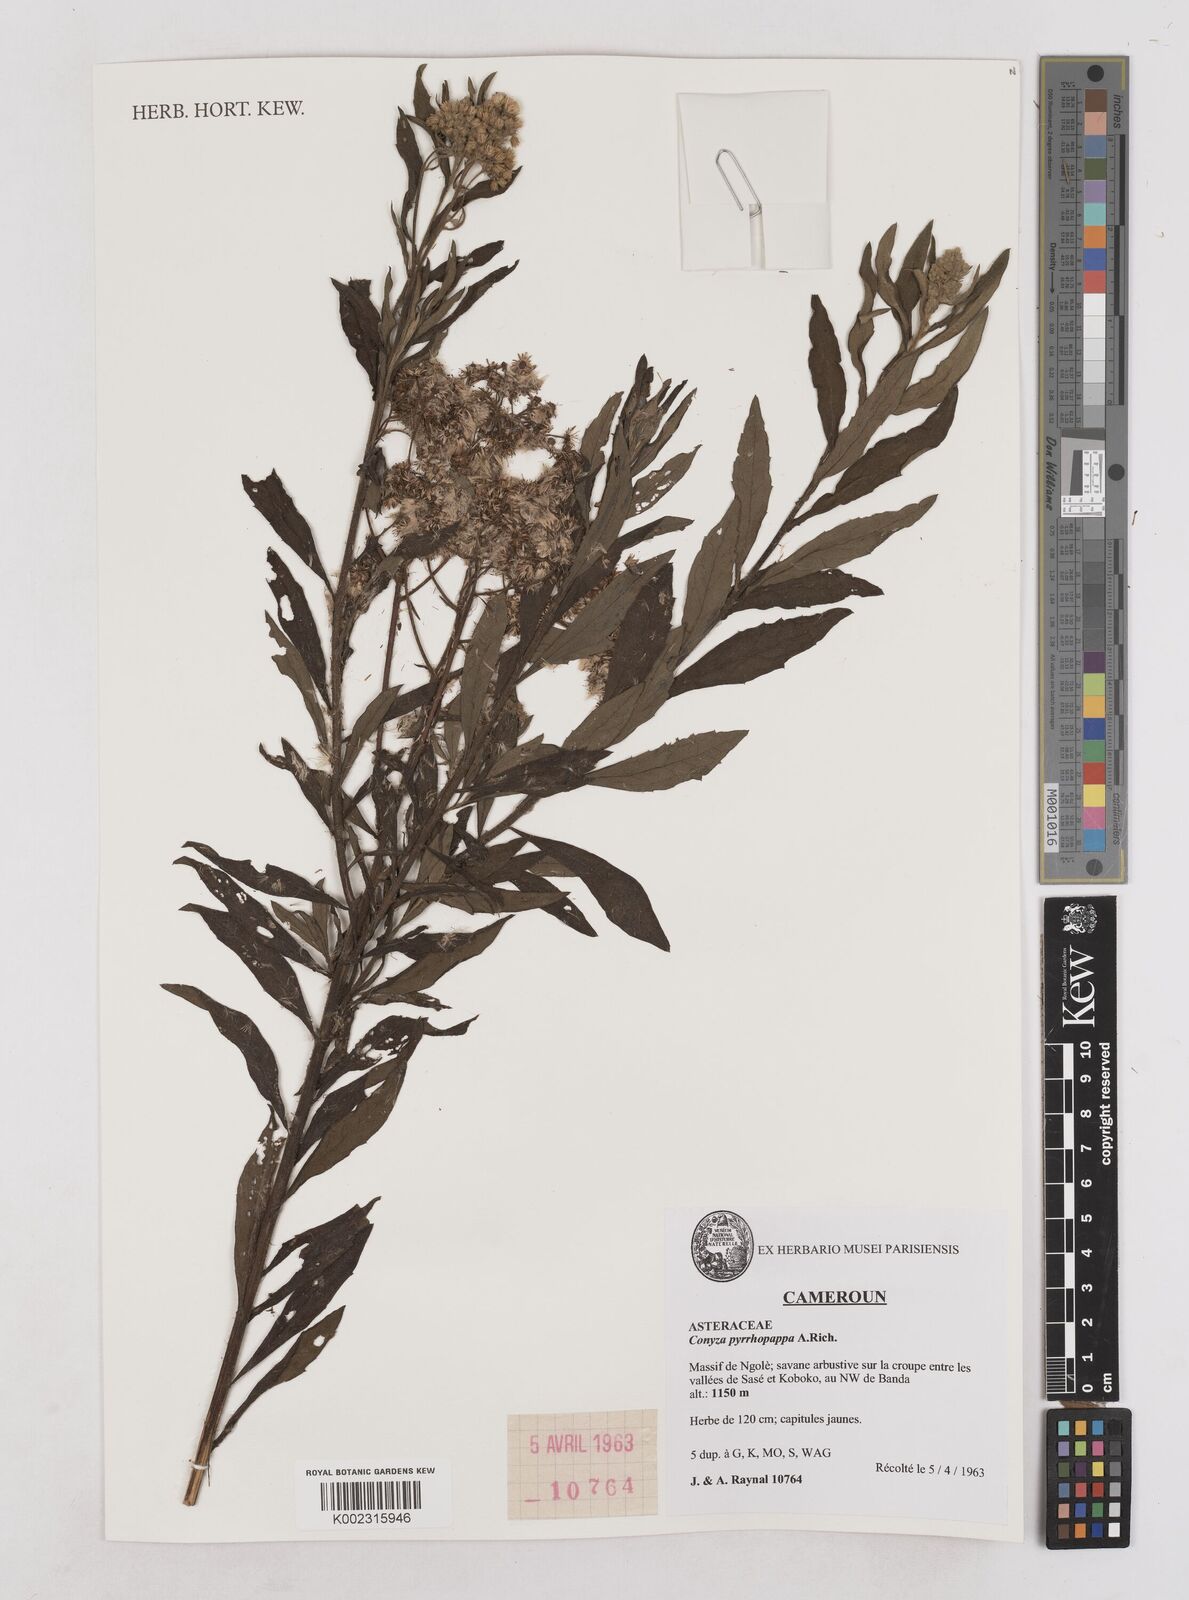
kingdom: Plantae
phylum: Tracheophyta
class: Magnoliopsida
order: Asterales
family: Asteraceae
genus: Microglossa
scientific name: Microglossa pyrrhopappa
